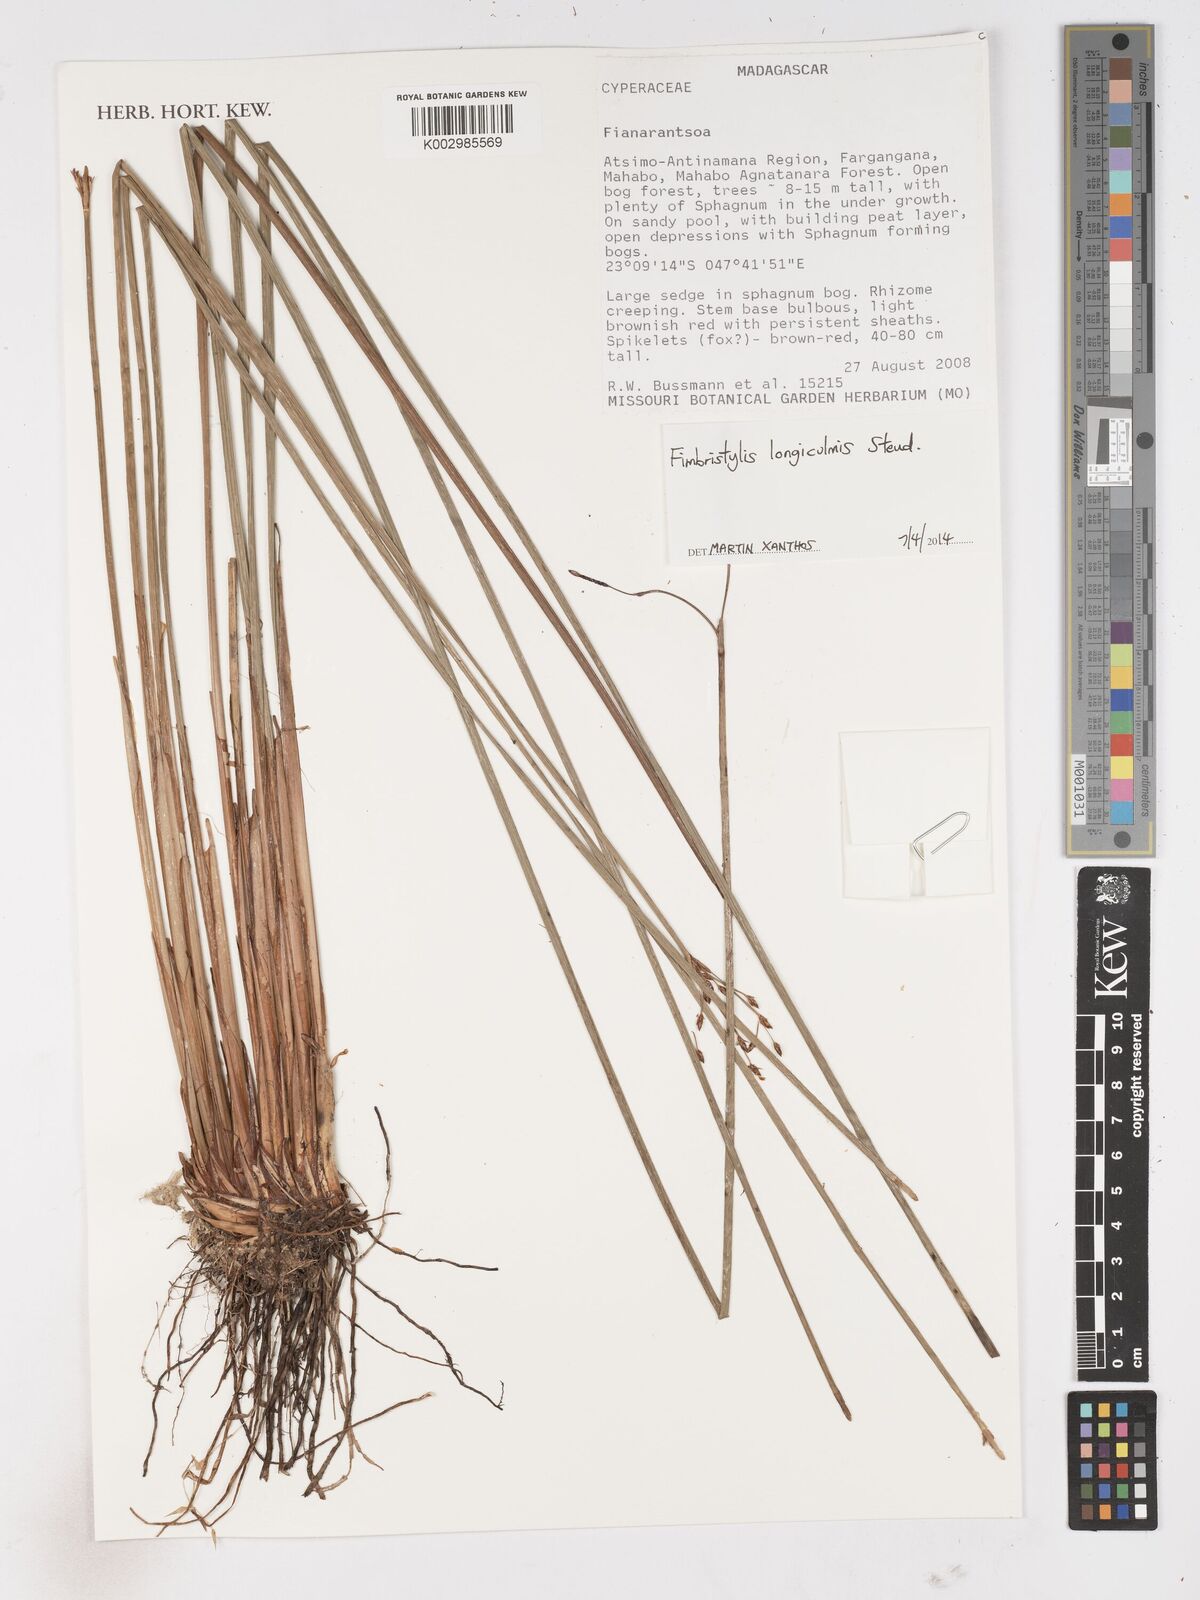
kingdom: Plantae
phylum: Tracheophyta
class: Liliopsida
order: Poales
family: Cyperaceae
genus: Fimbristylis
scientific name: Fimbristylis bivalvis
